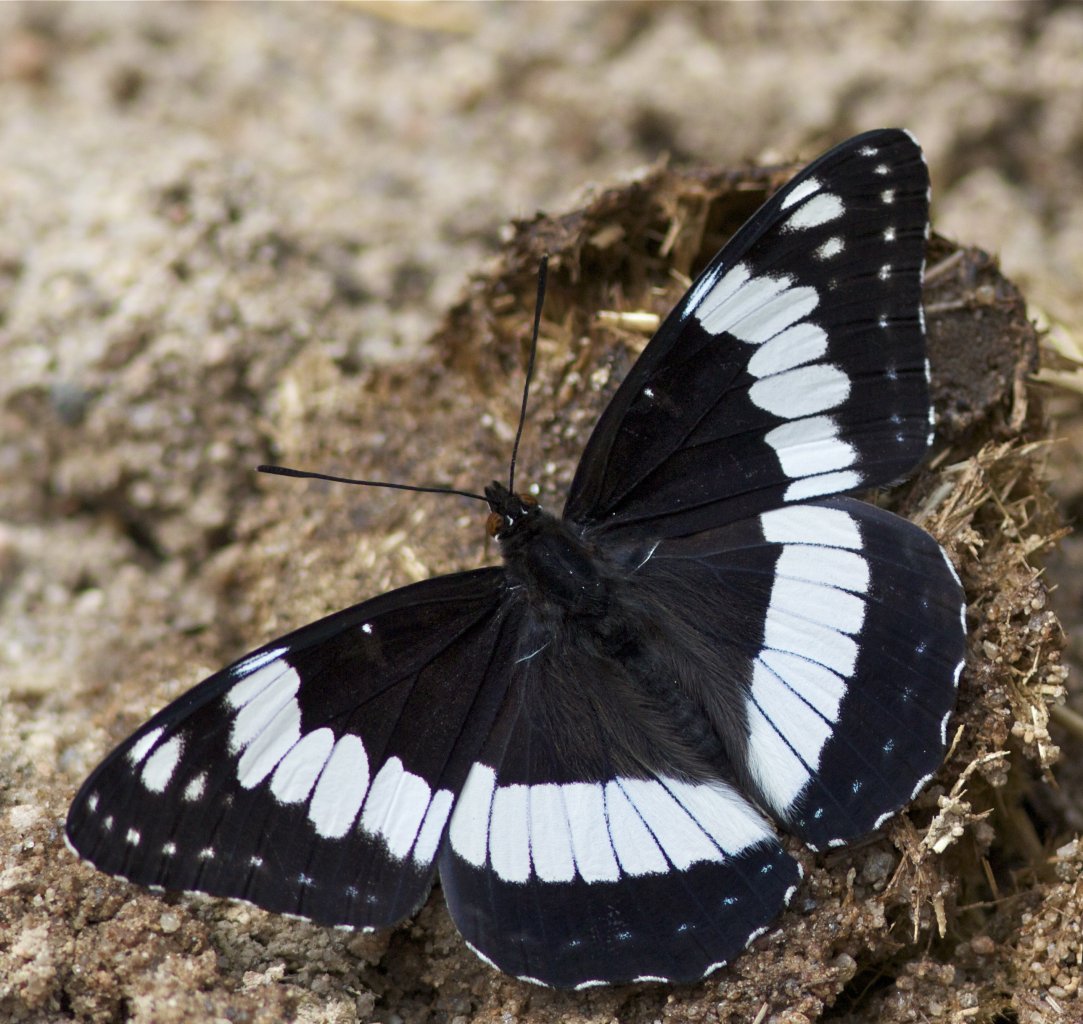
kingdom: Animalia
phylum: Arthropoda
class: Insecta
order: Lepidoptera
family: Nymphalidae
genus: Limenitis
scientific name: Limenitis weidemeyerii
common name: Weidemeyer's Admiral
